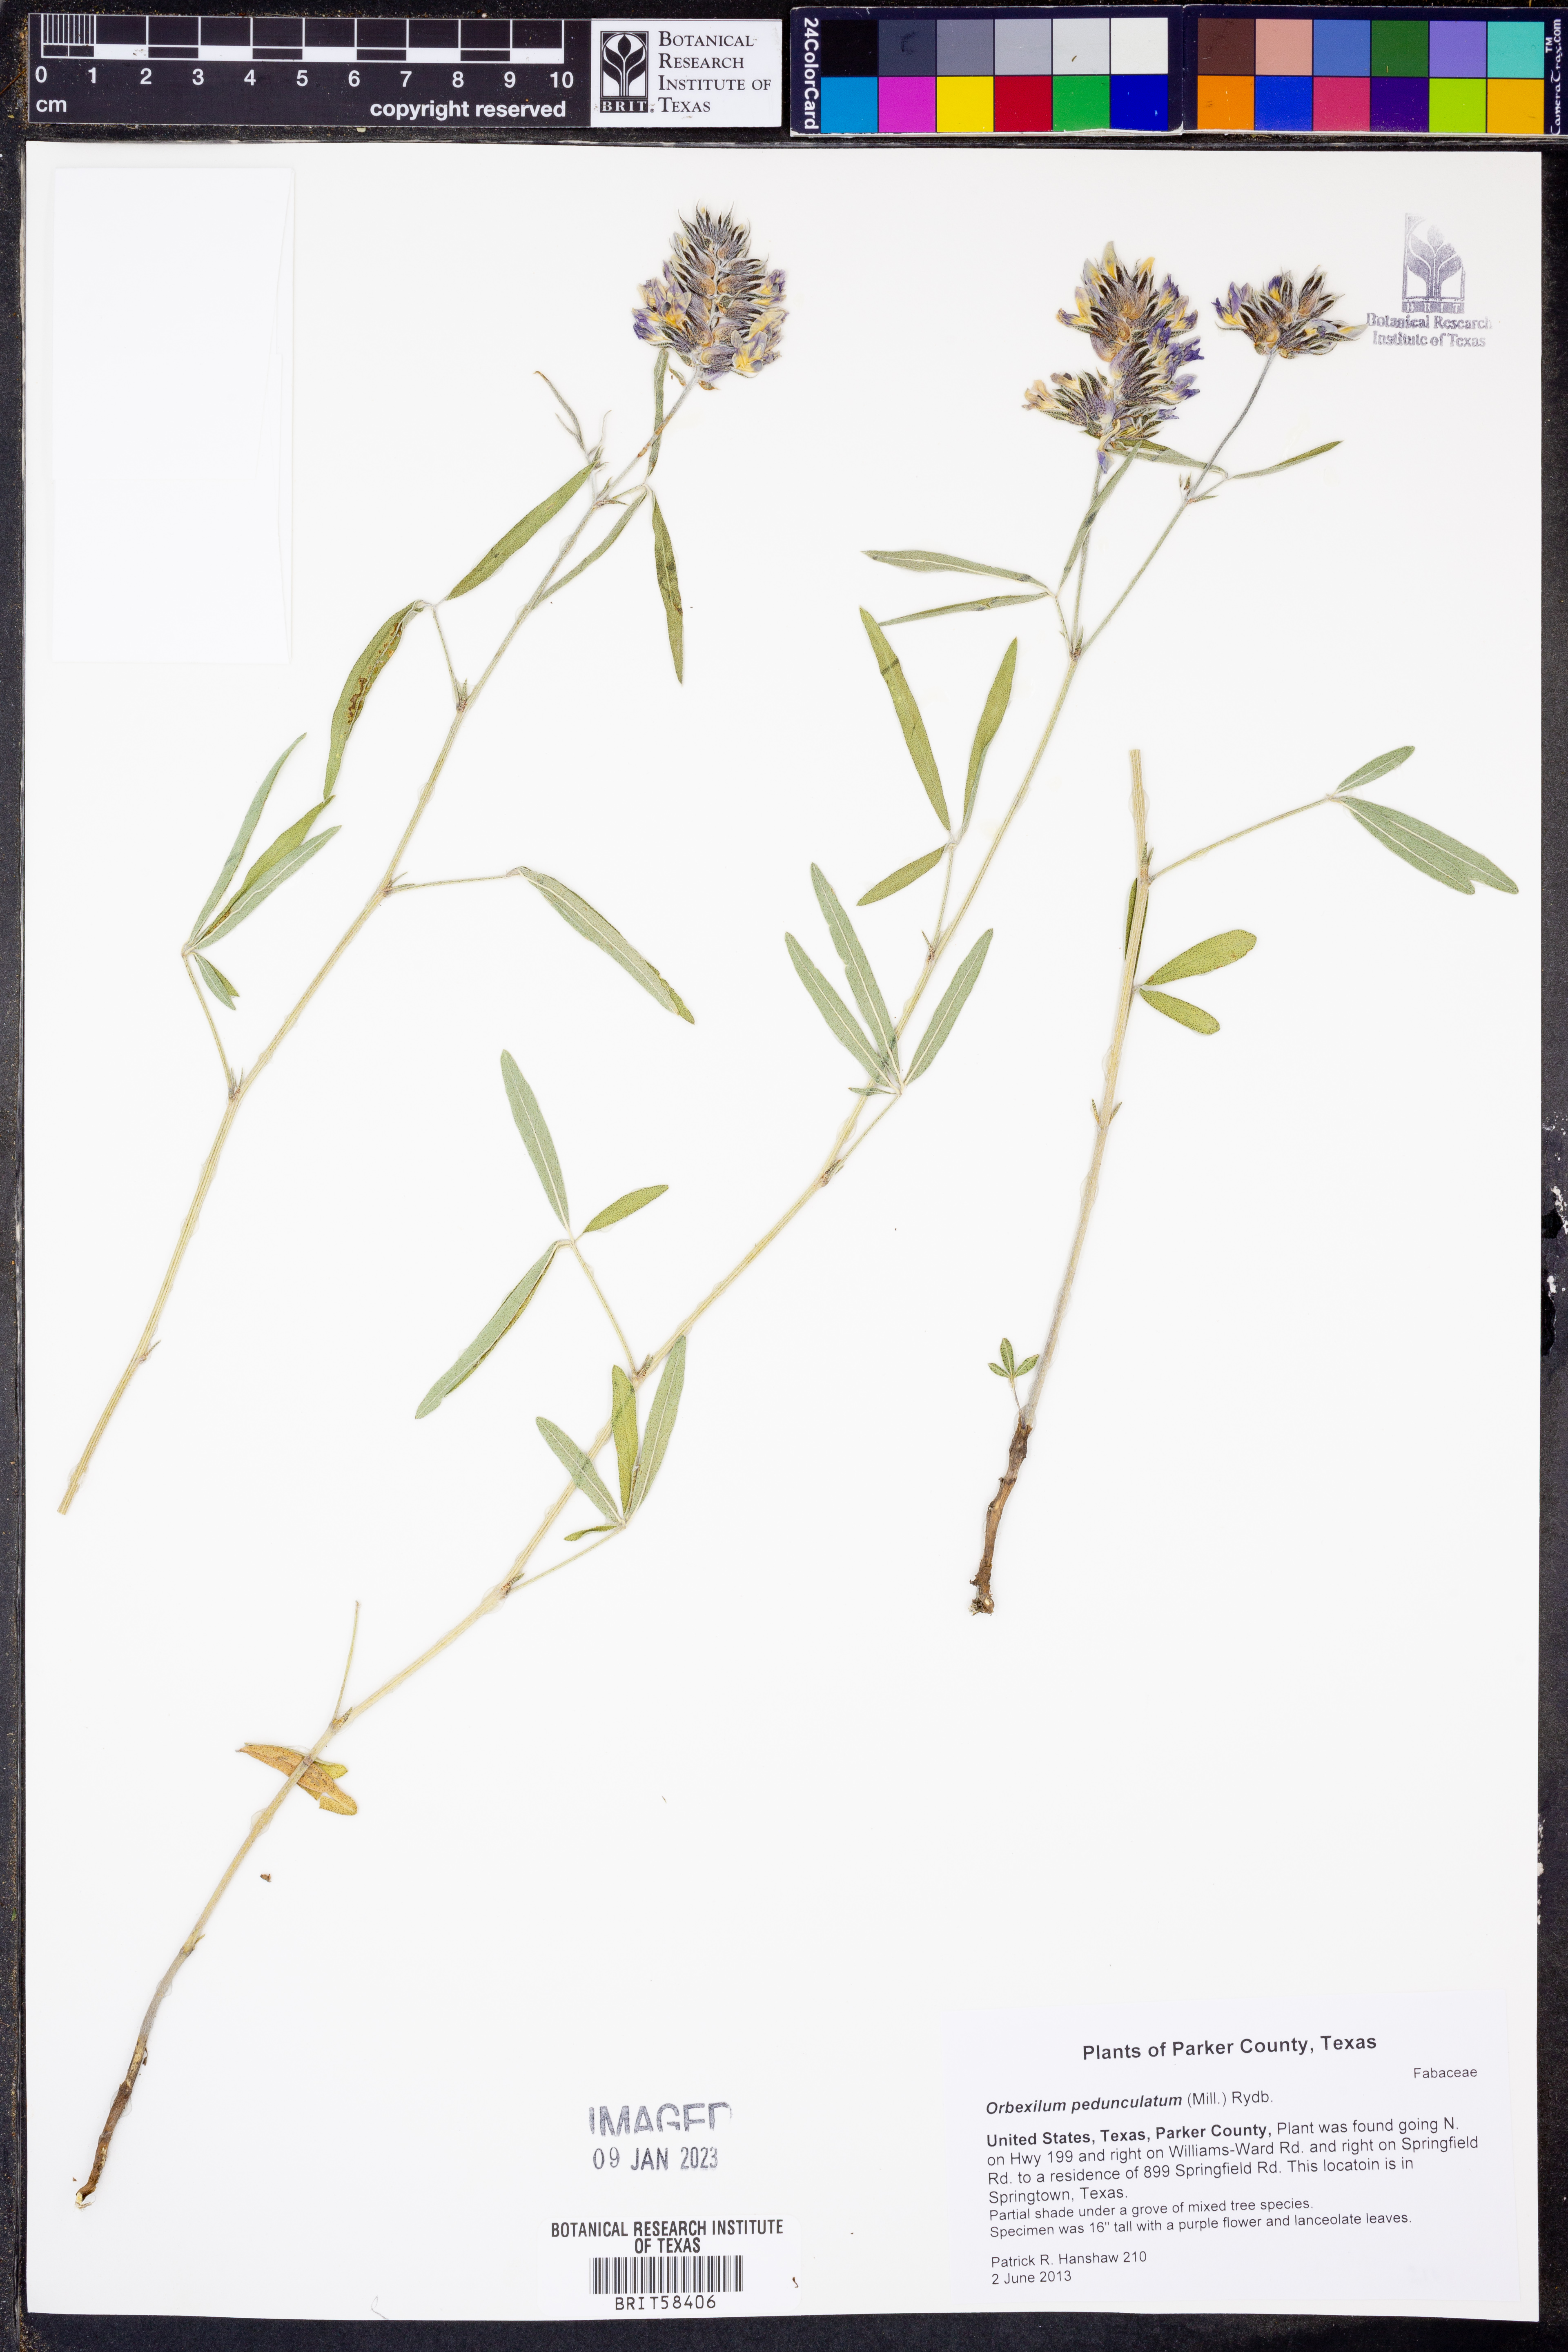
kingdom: Plantae
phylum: Tracheophyta
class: Magnoliopsida
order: Fabales
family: Fabaceae
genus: Orbexilum
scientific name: Orbexilum pedunculatum
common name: Sampson's snakeroot
